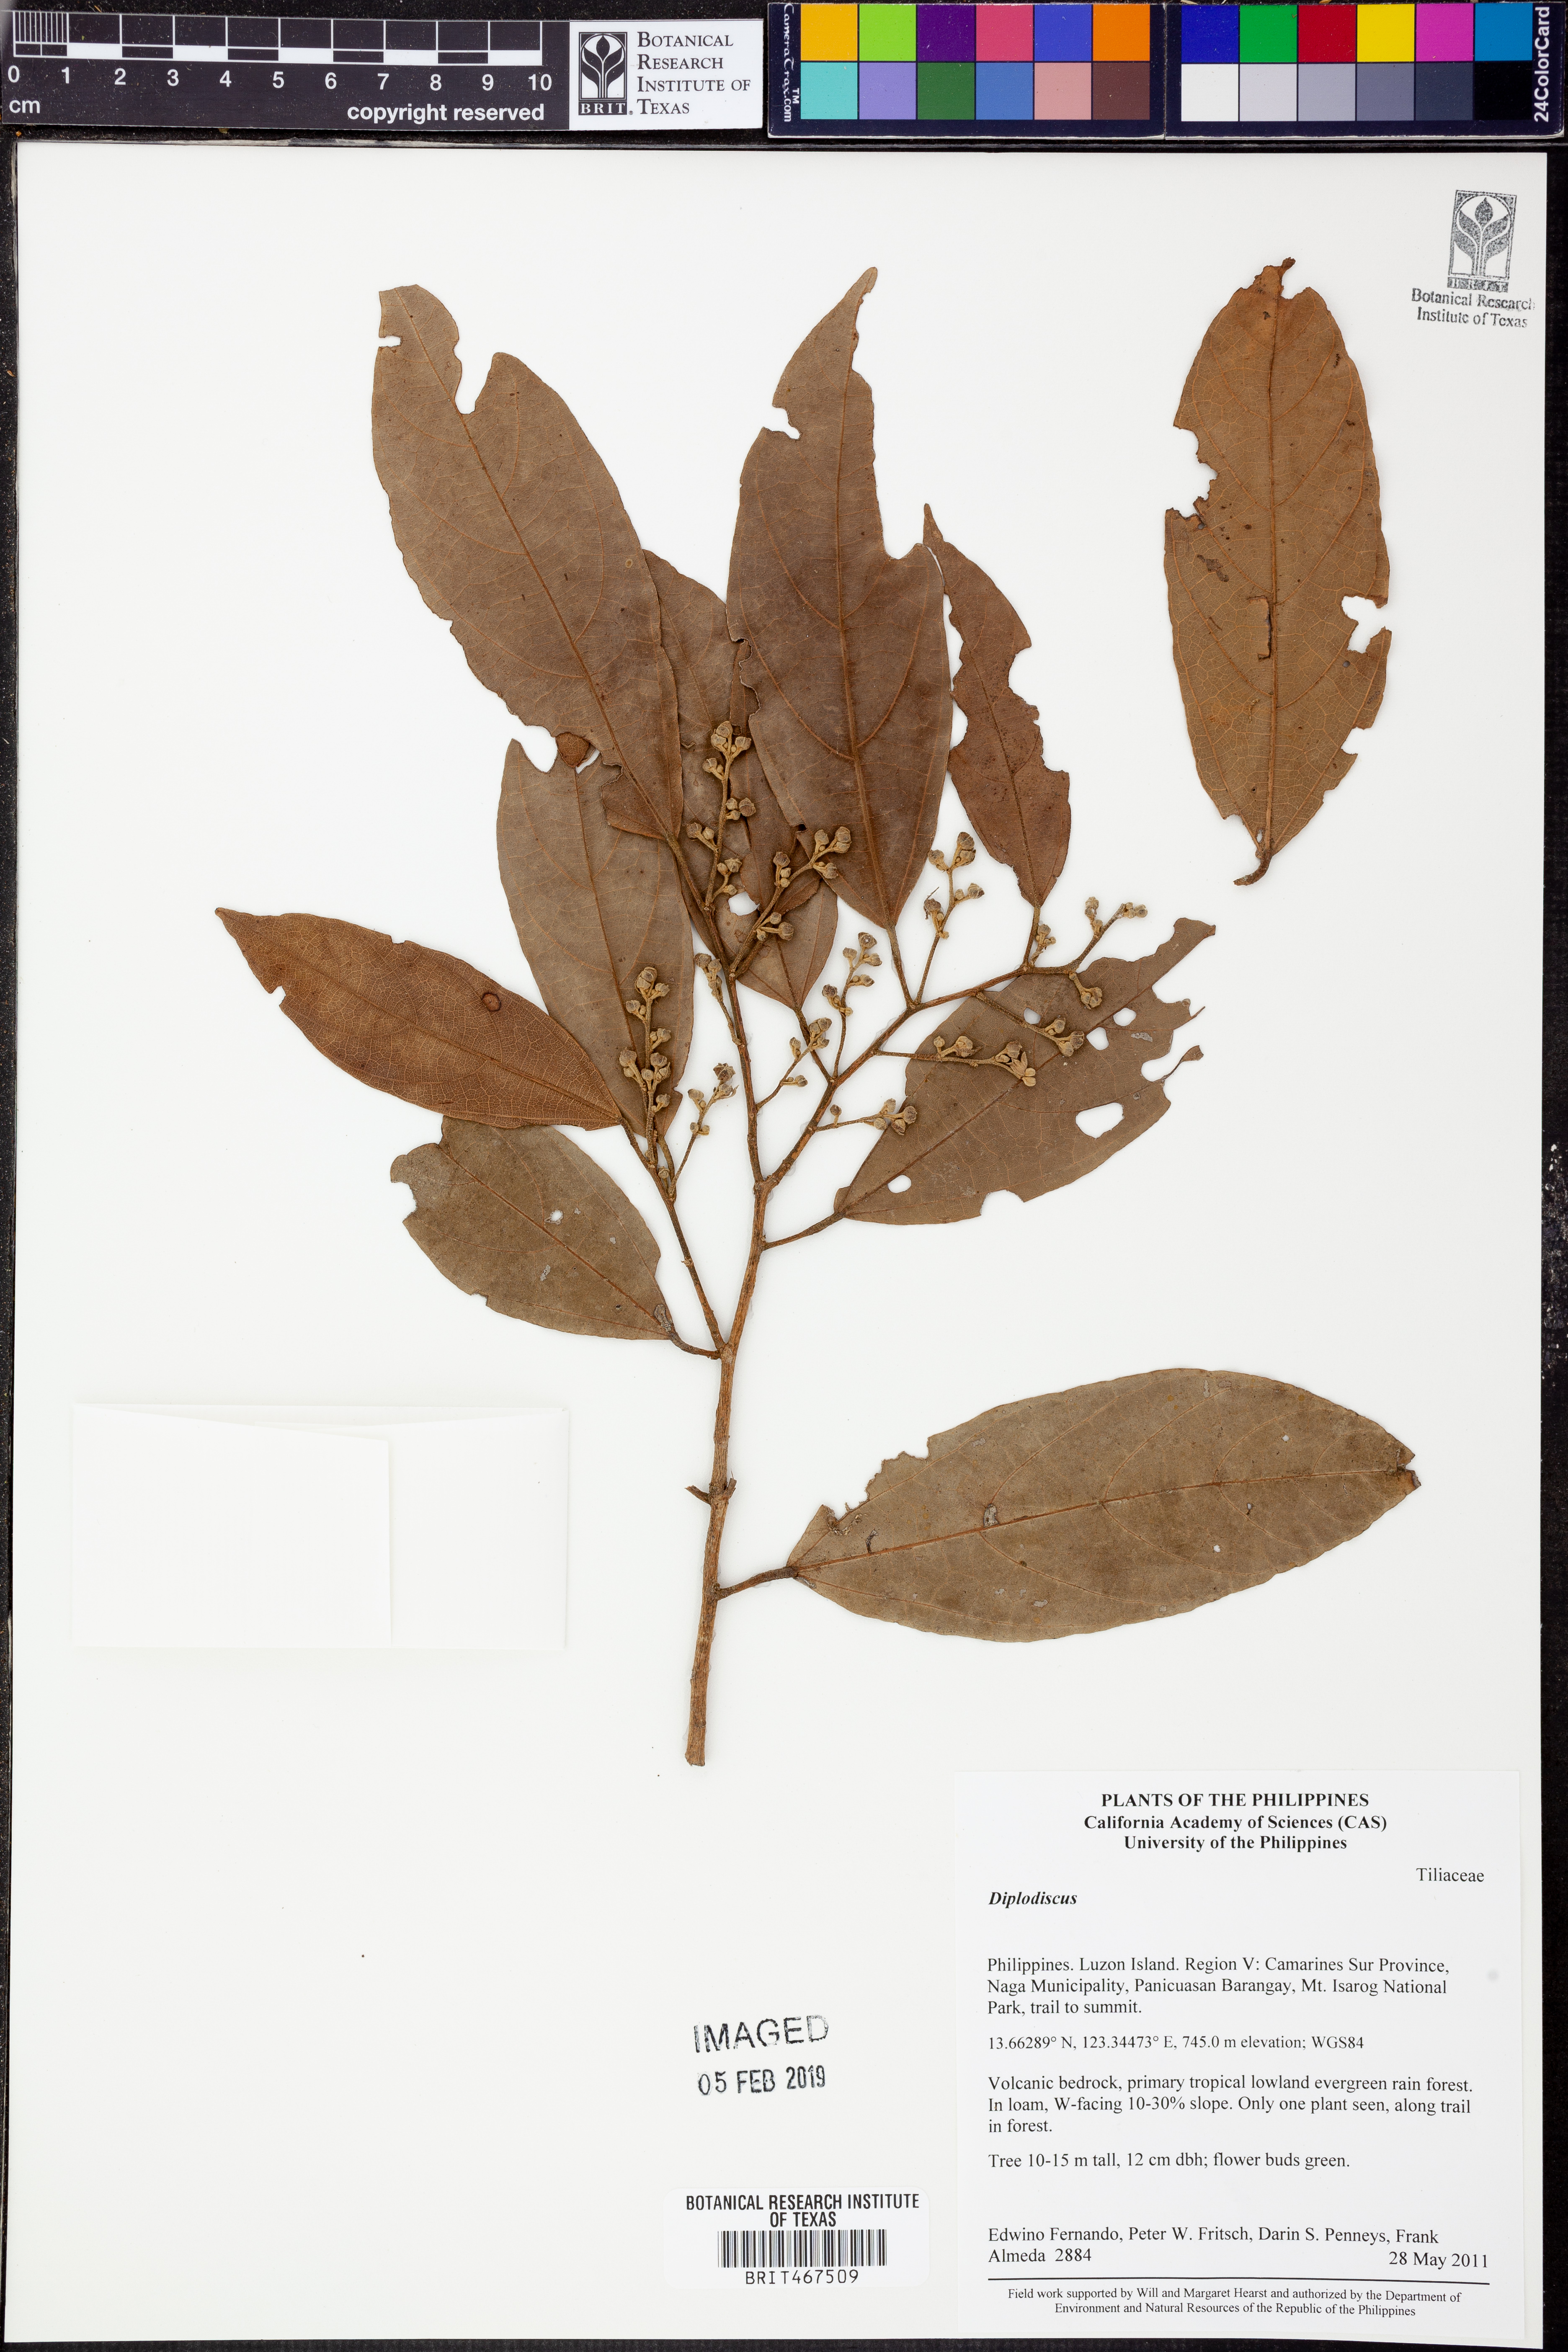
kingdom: Plantae
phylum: Tracheophyta
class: Magnoliopsida
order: Malvales
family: Malvaceae
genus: Diplodiscus
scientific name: Diplodiscus
